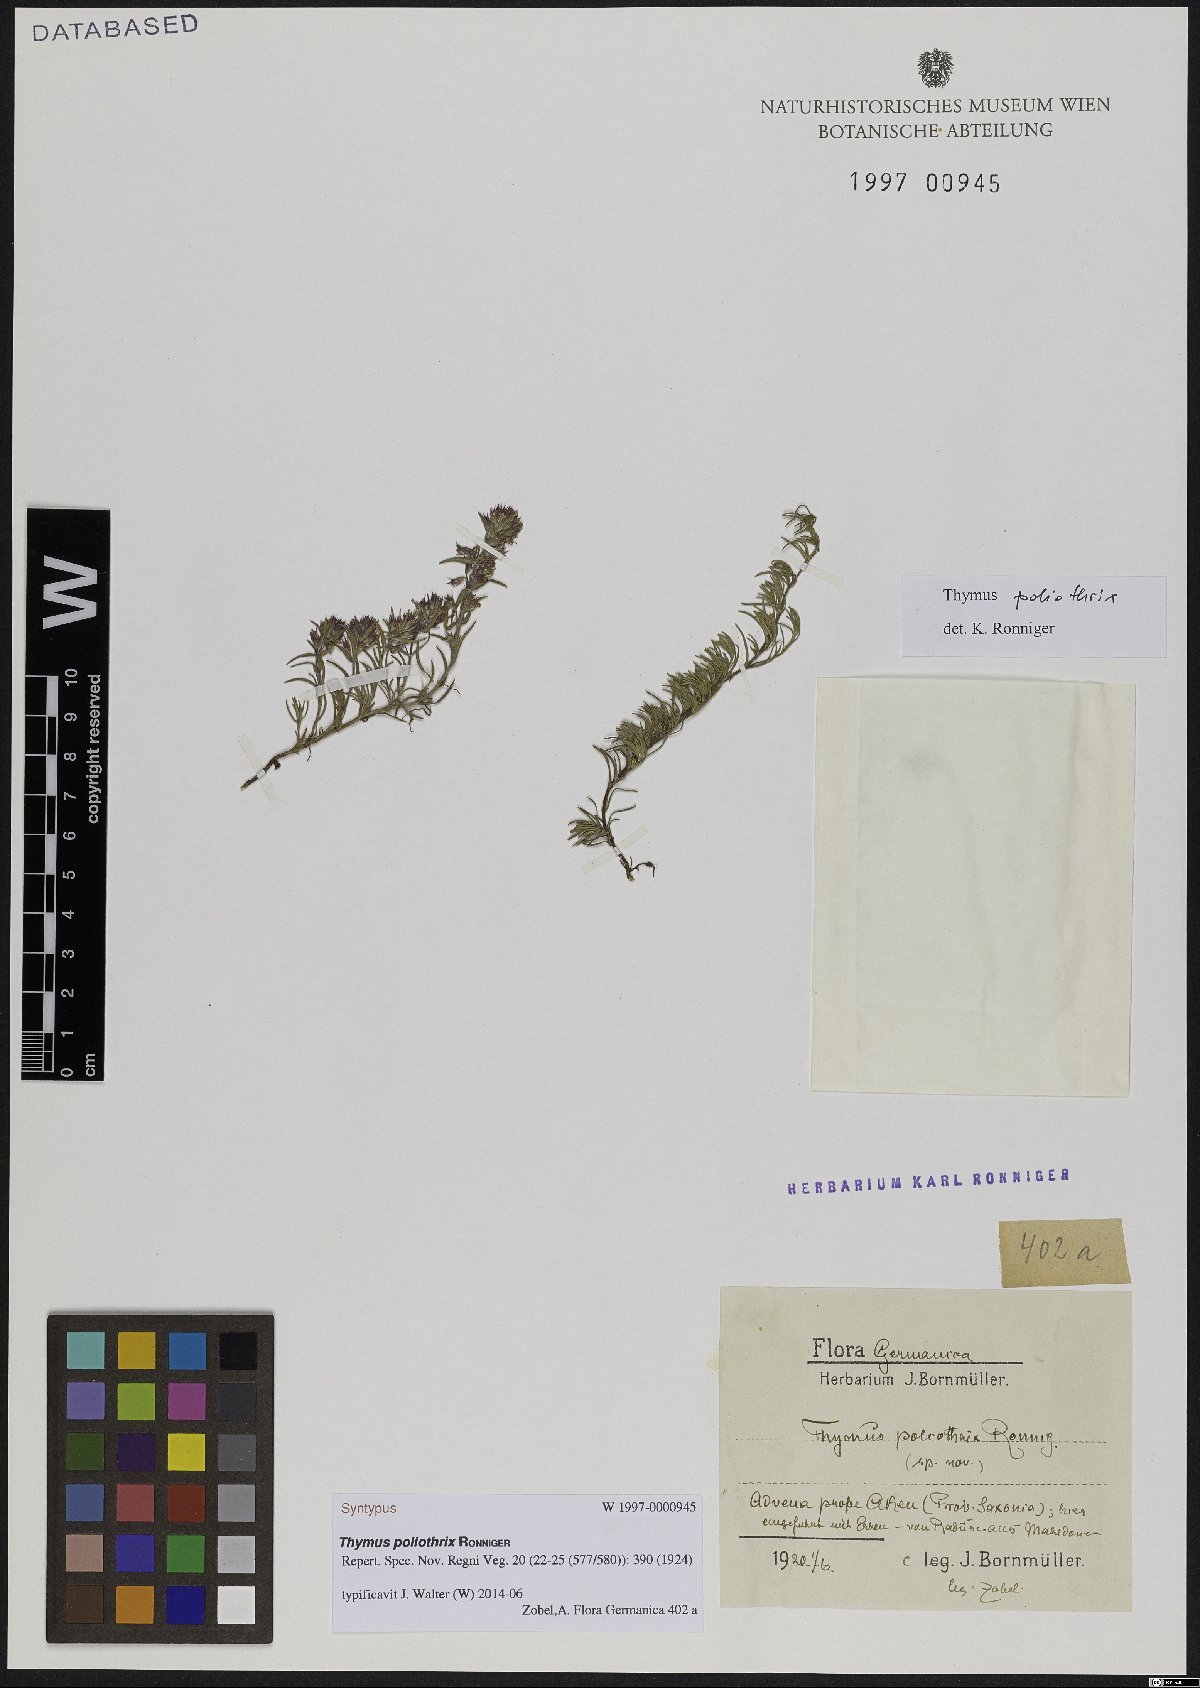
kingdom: Plantae
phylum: Tracheophyta
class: Magnoliopsida
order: Lamiales
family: Lamiaceae
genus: Thymus
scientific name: Thymus boissieri
